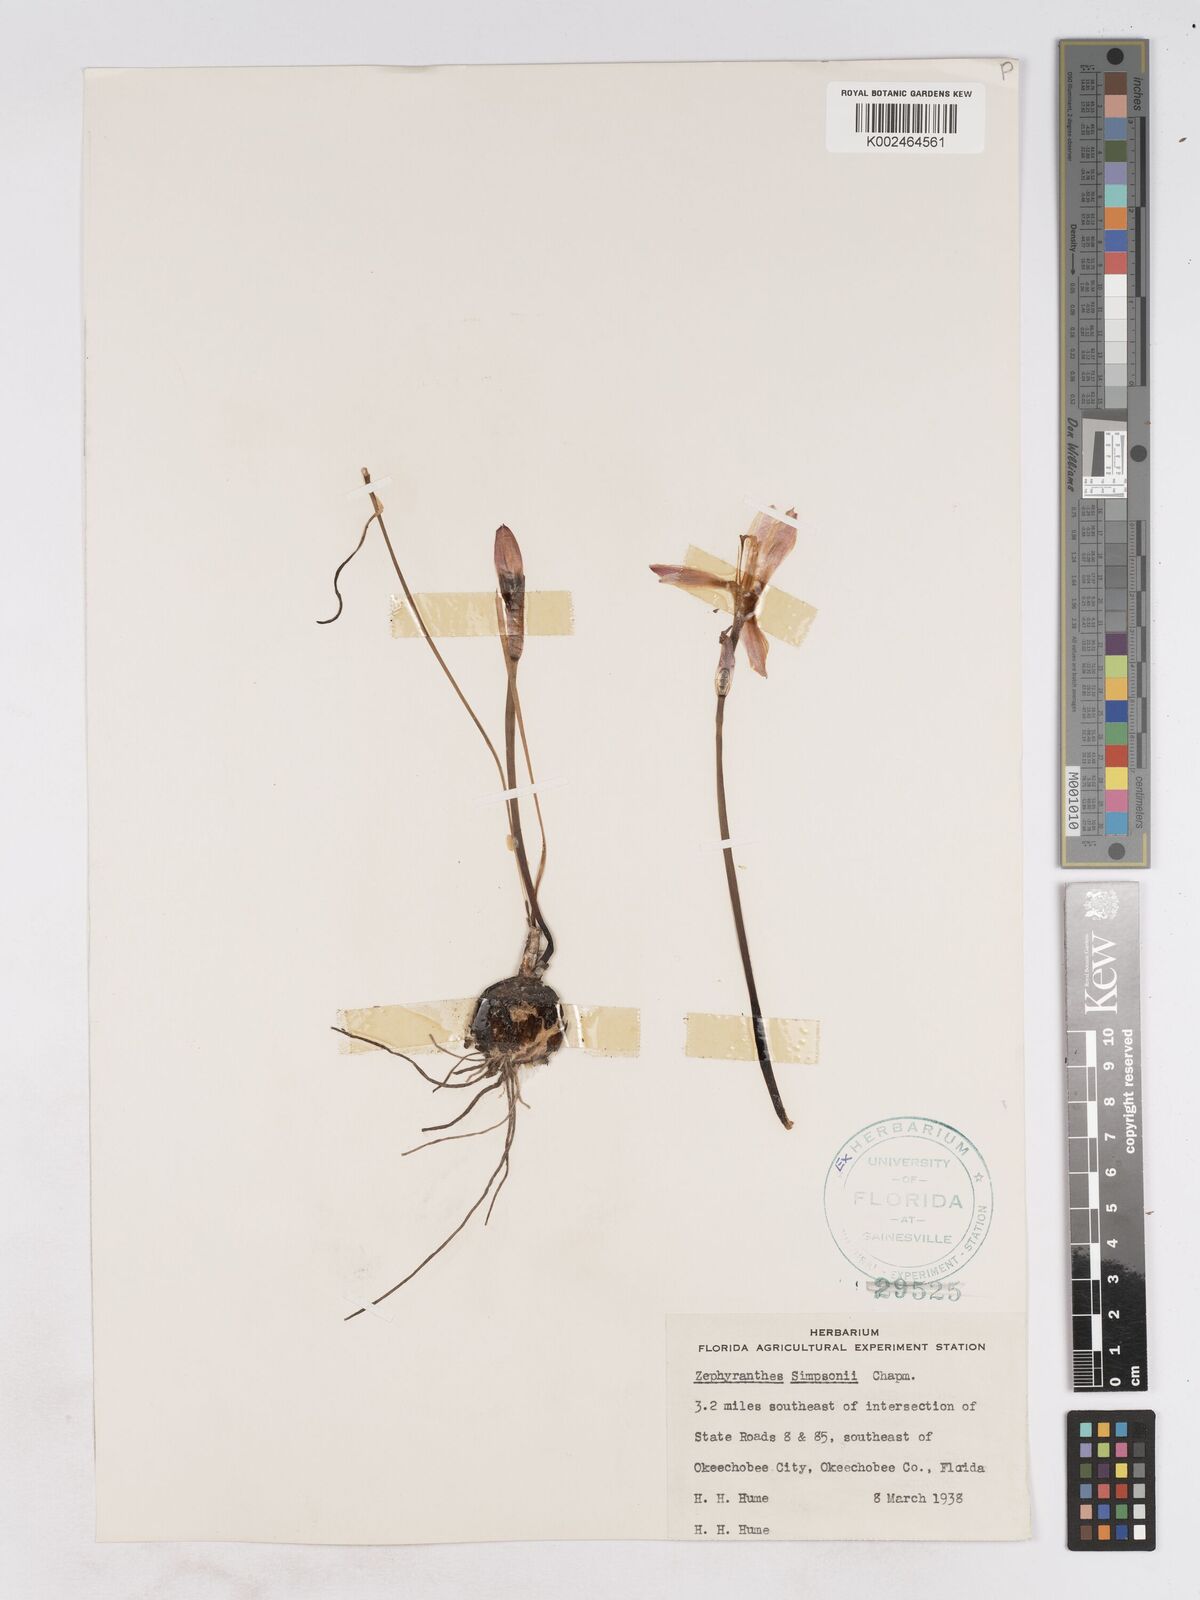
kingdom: Plantae
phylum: Tracheophyta
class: Liliopsida
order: Asparagales
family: Amaryllidaceae
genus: Zephyranthes
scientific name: Zephyranthes simpsonii
